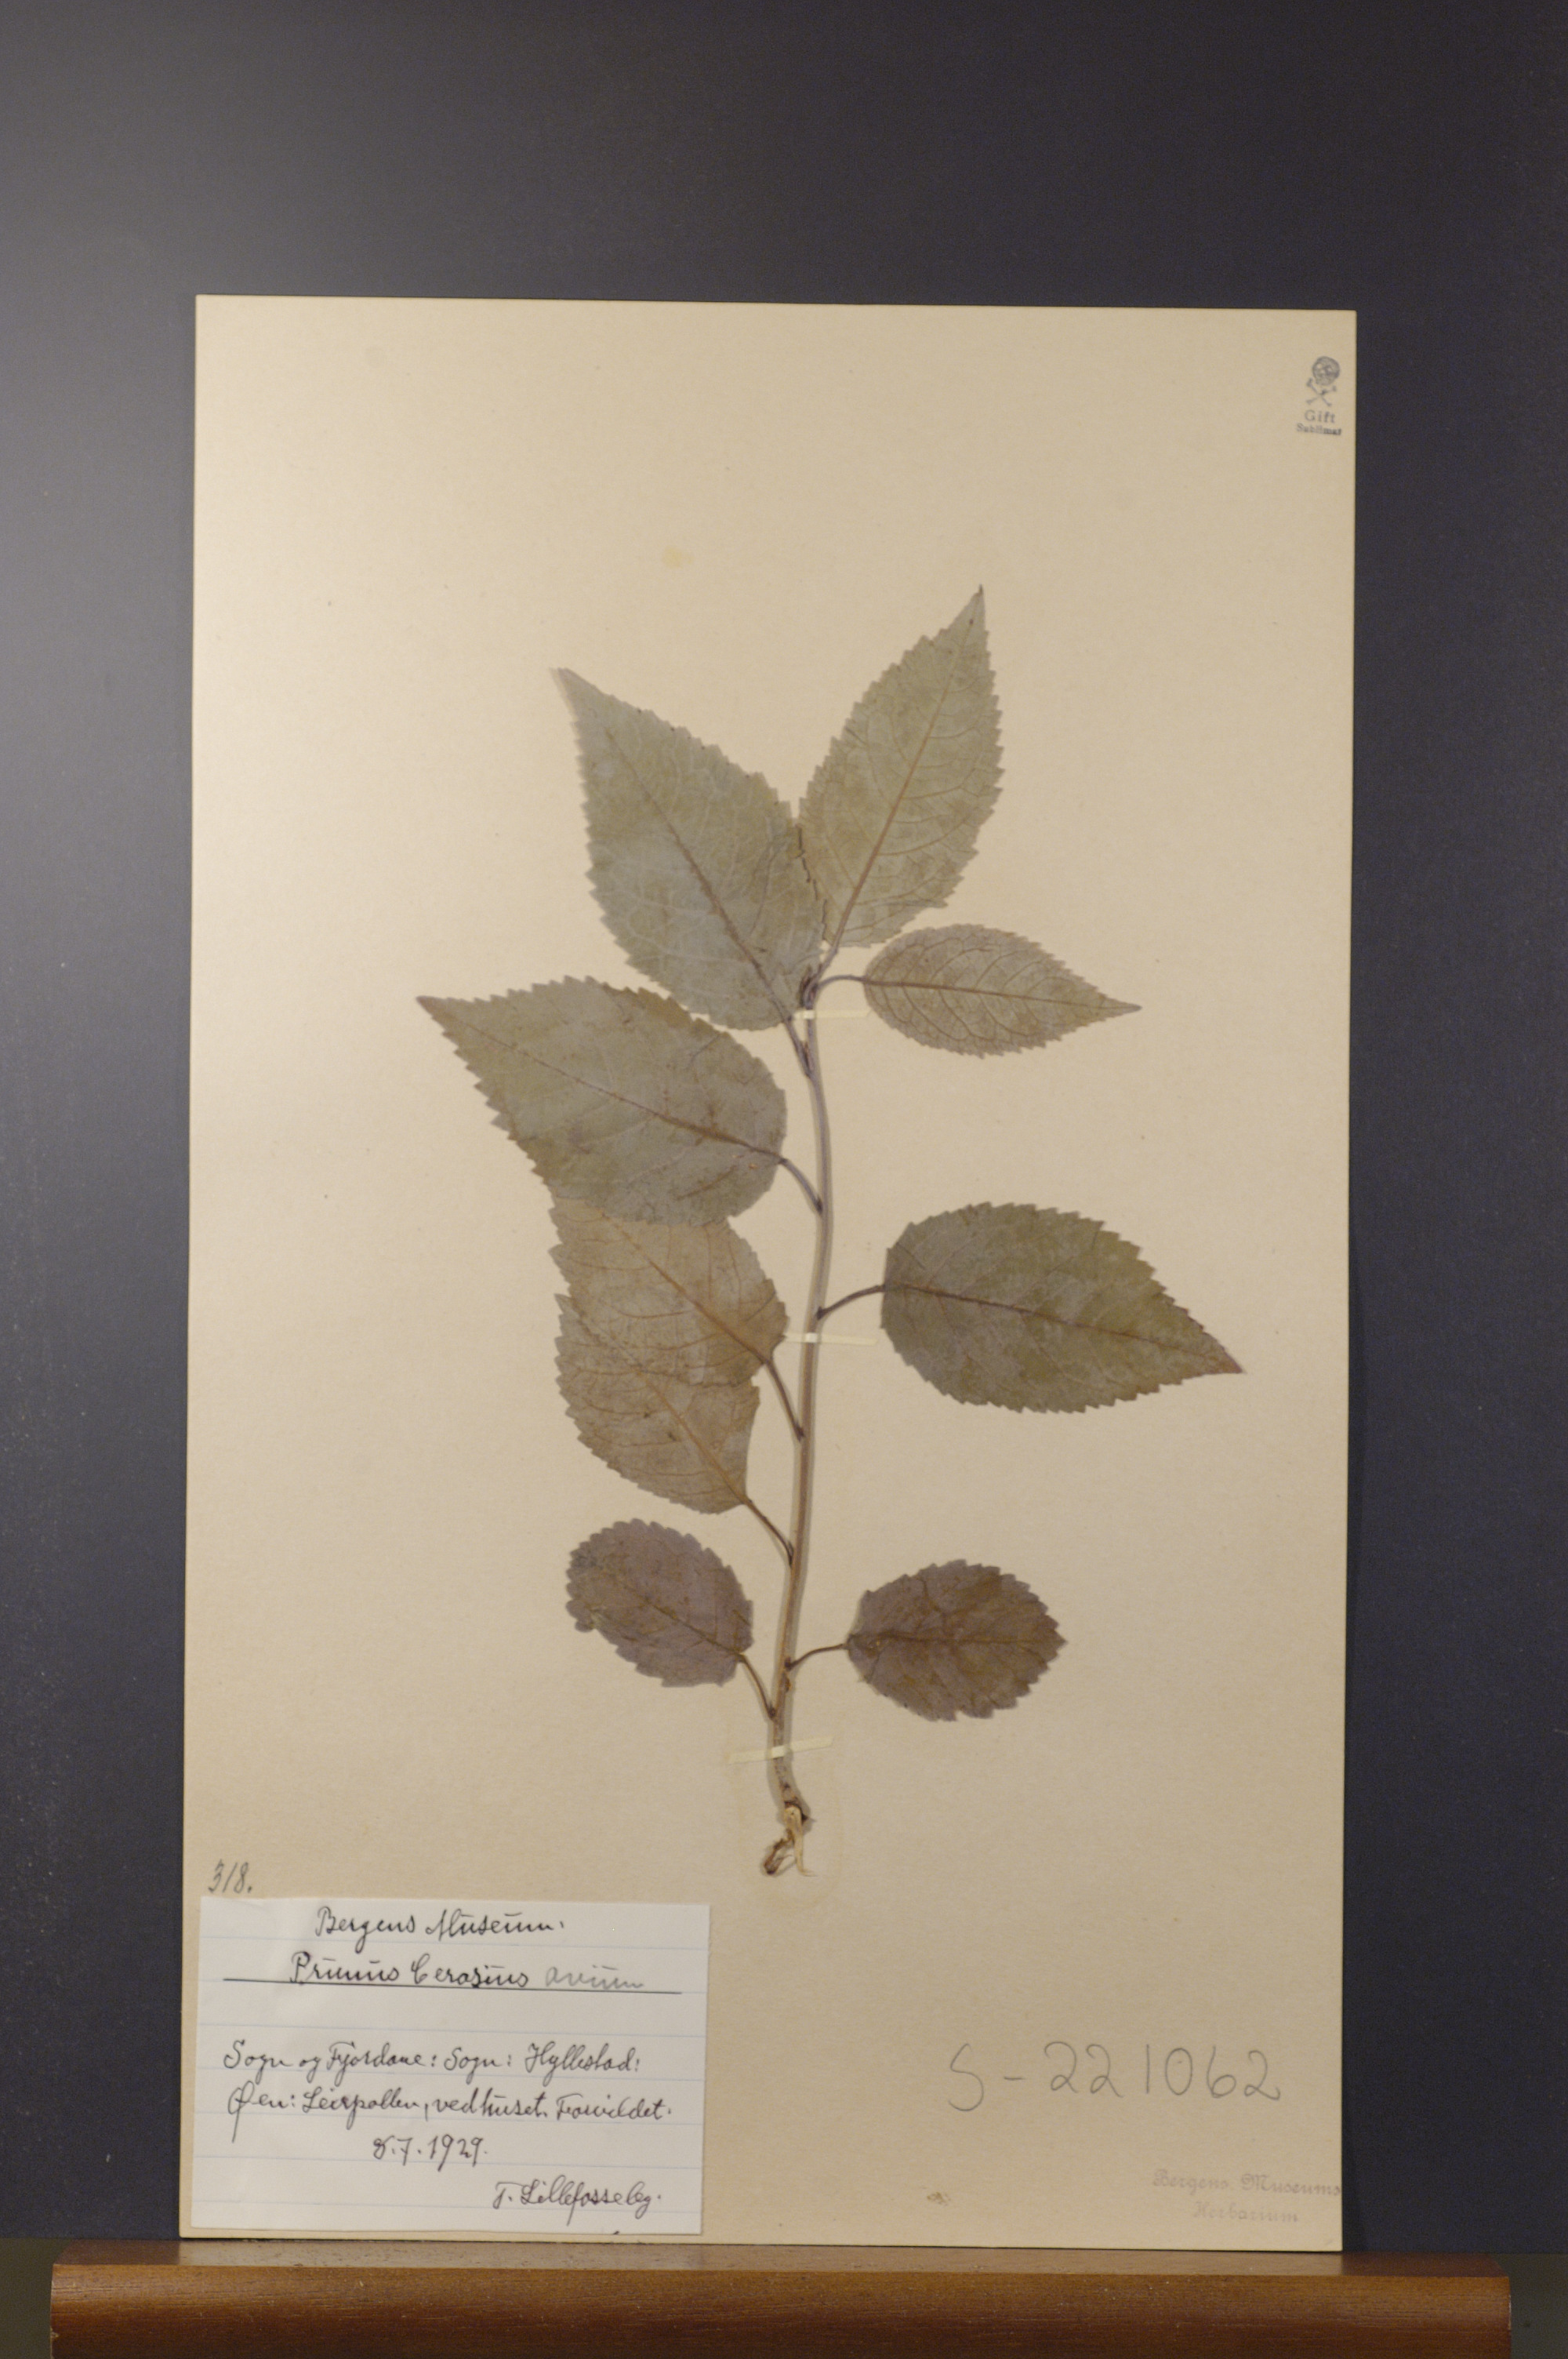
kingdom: Plantae
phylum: Tracheophyta
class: Magnoliopsida
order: Rosales
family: Rosaceae
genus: Prunus
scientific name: Prunus avium
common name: Sweet cherry
